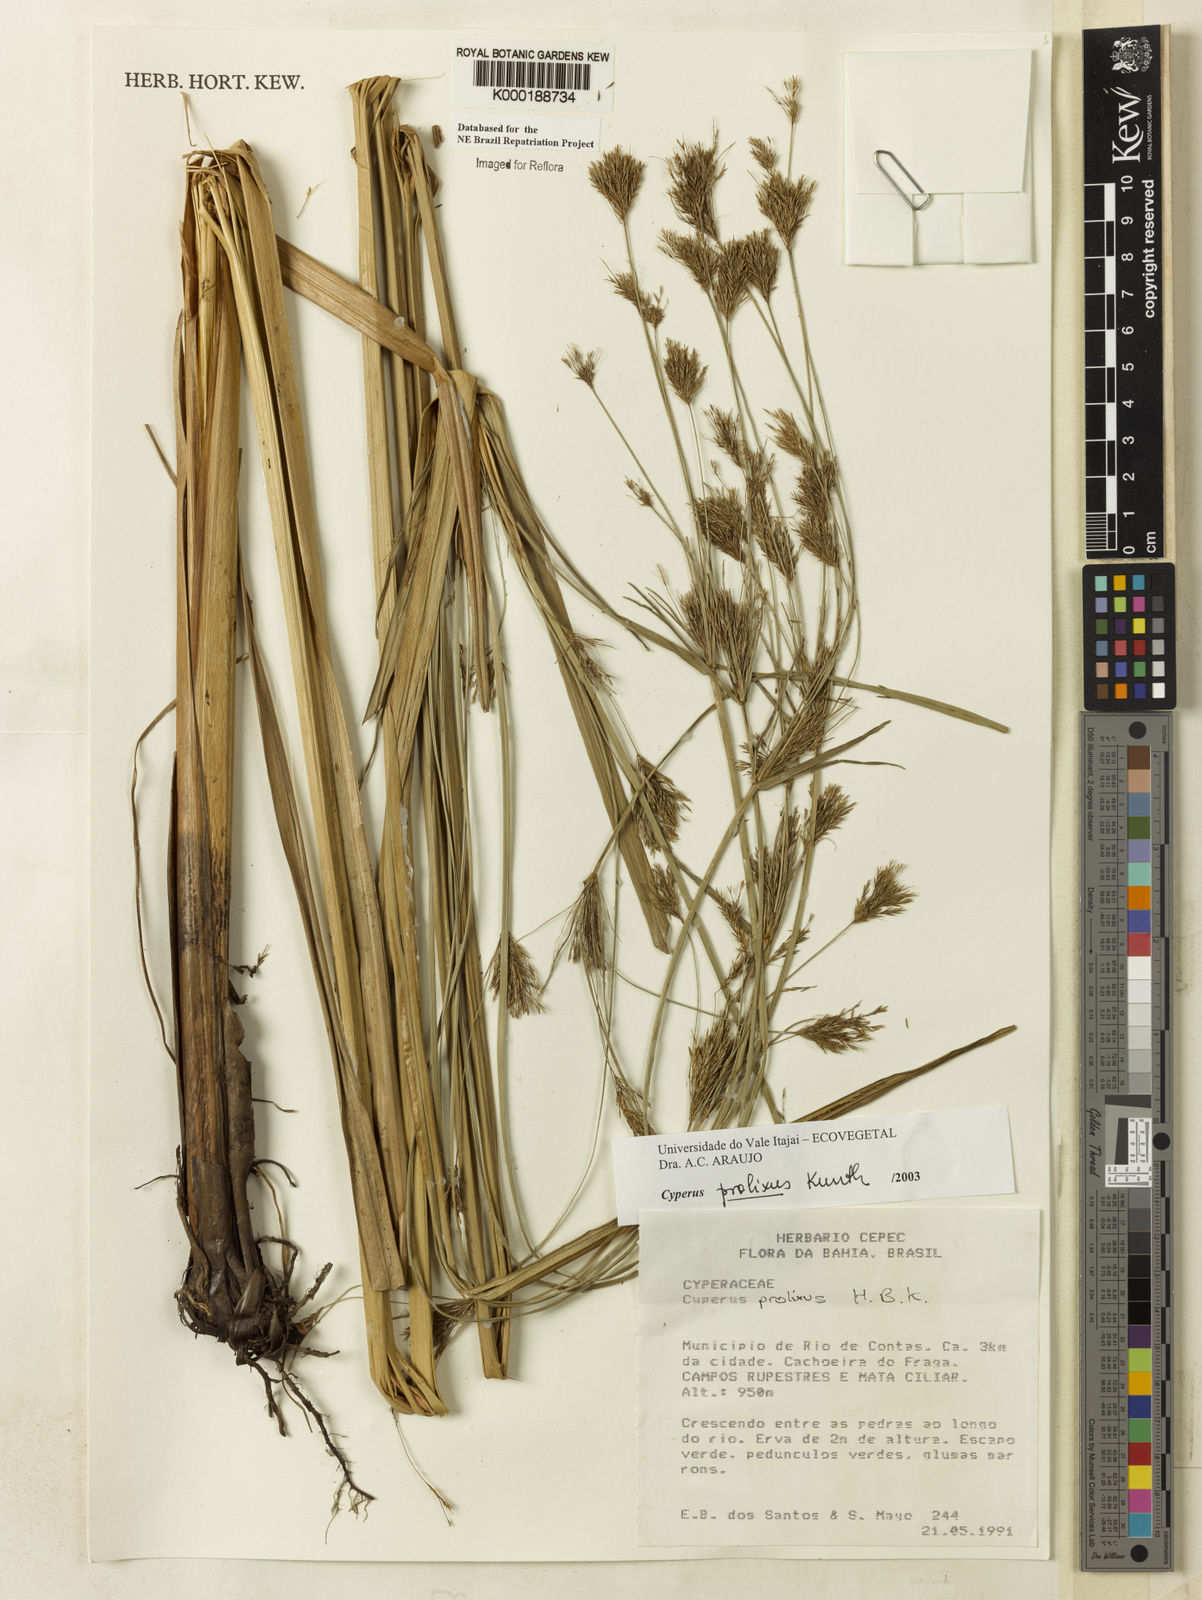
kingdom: Plantae
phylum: Tracheophyta
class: Liliopsida
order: Poales
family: Cyperaceae
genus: Cyperus
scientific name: Cyperus prolixus
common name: Mosquito flatsedge
